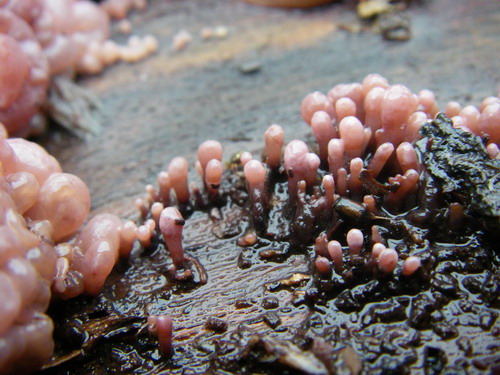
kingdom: Fungi
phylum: Ascomycota
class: Leotiomycetes
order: Helotiales
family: Gelatinodiscaceae
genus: Ascocoryne
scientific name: Ascocoryne sarcoides
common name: rødlilla sejskive
